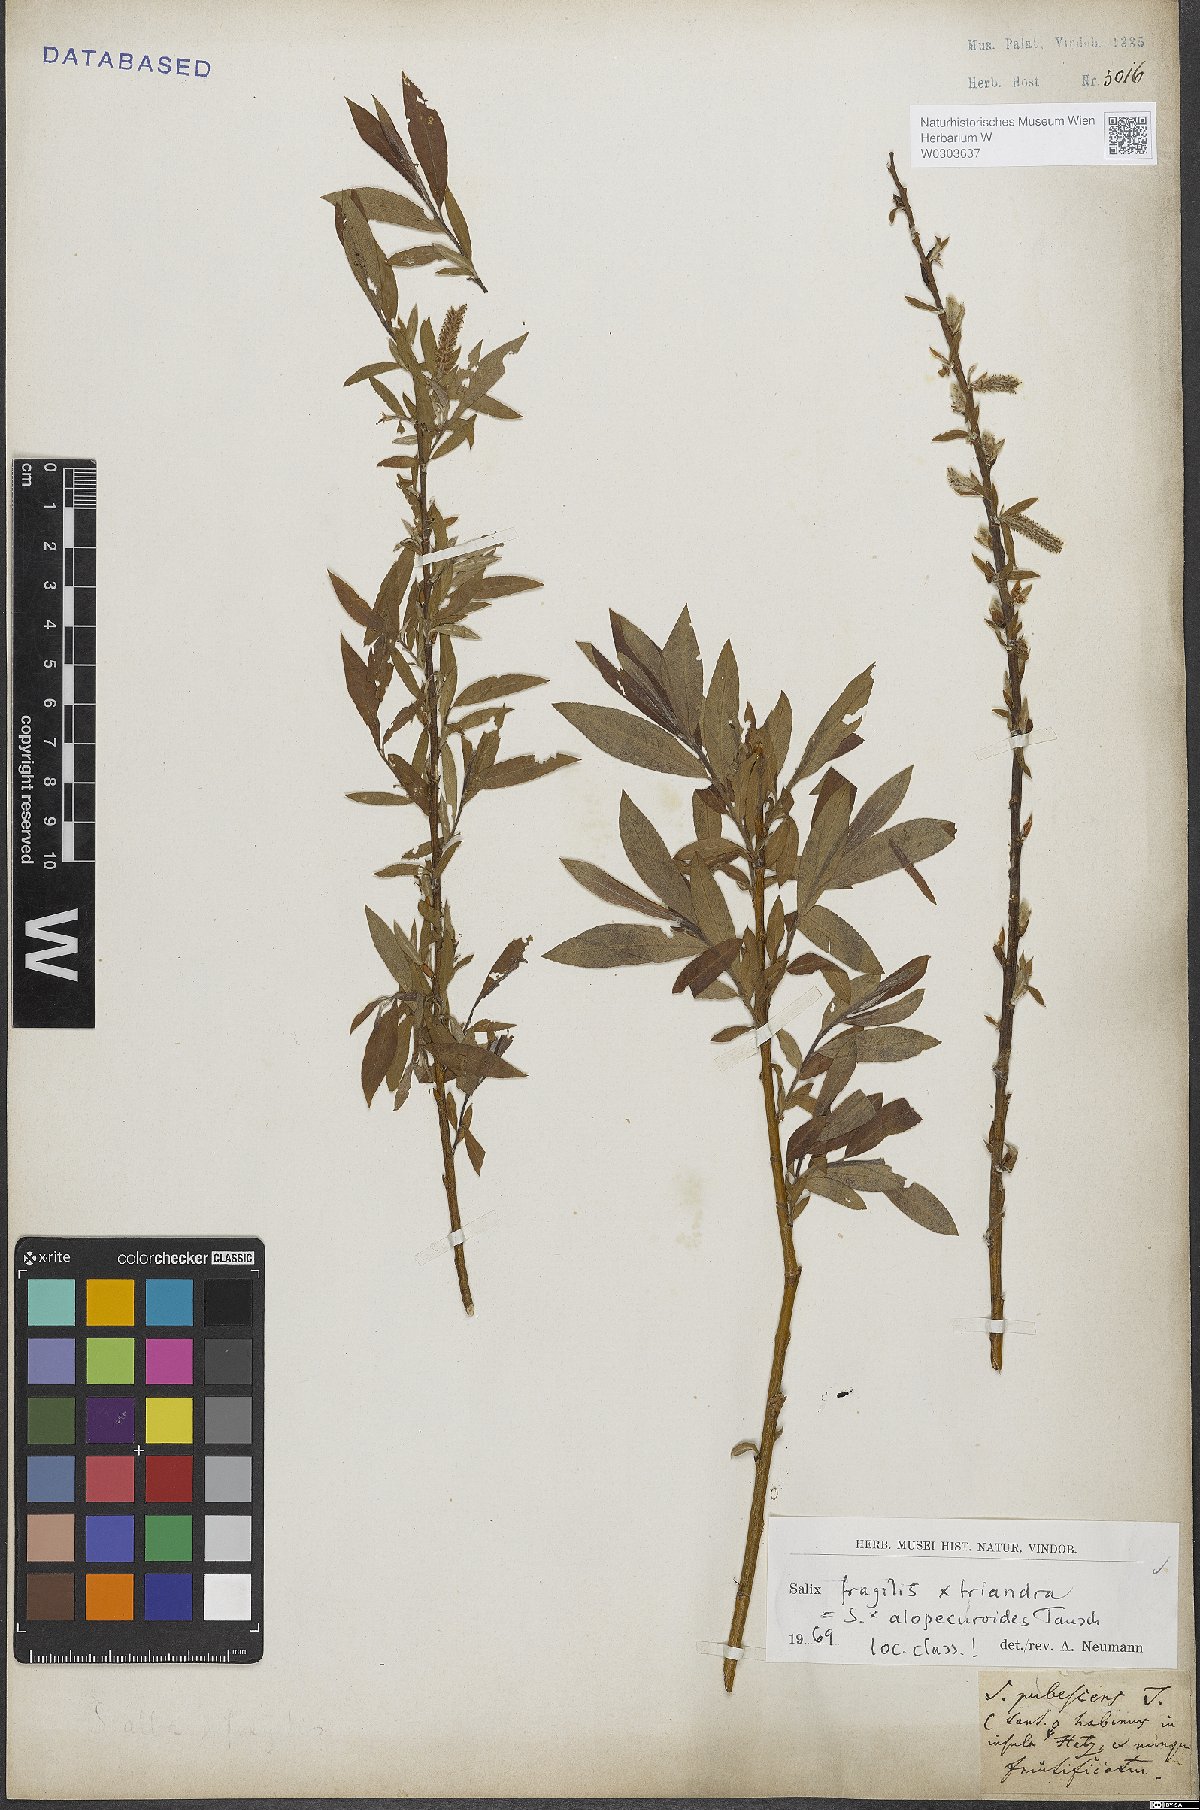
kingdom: Plantae
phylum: Tracheophyta
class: Magnoliopsida
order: Malpighiales
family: Salicaceae
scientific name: Salicaceae
